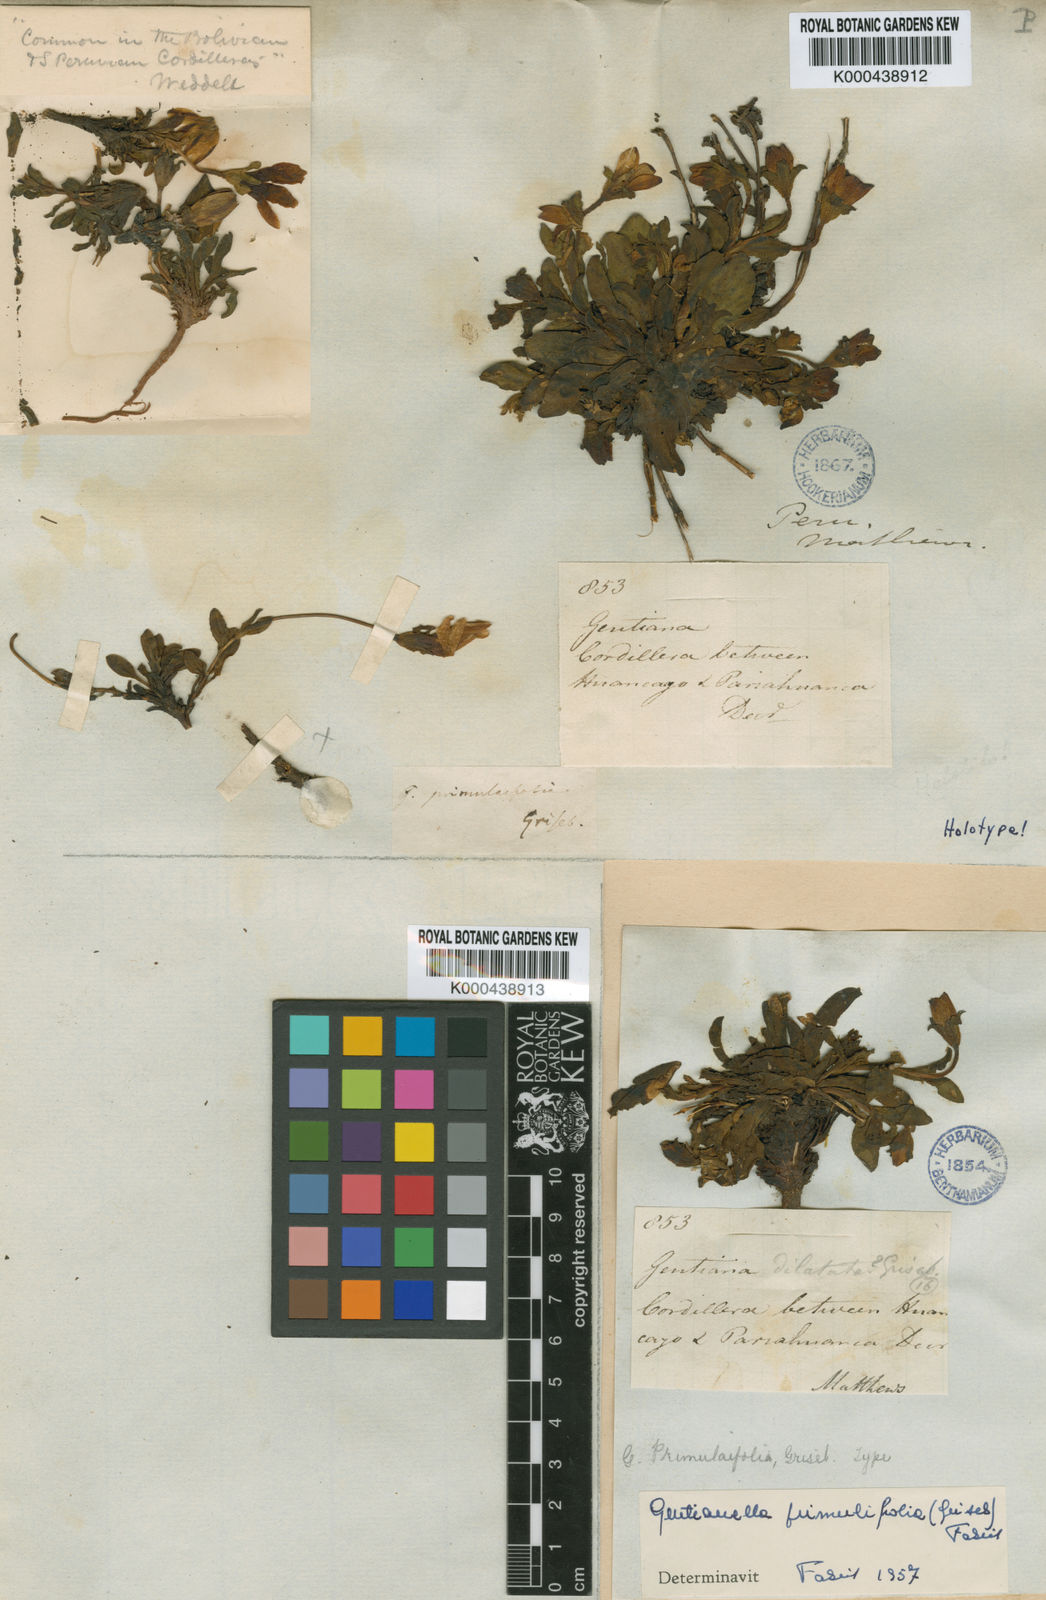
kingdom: Plantae
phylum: Tracheophyta
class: Magnoliopsida
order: Gentianales
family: Gentianaceae
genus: Gentianella
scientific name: Gentianella incurva
